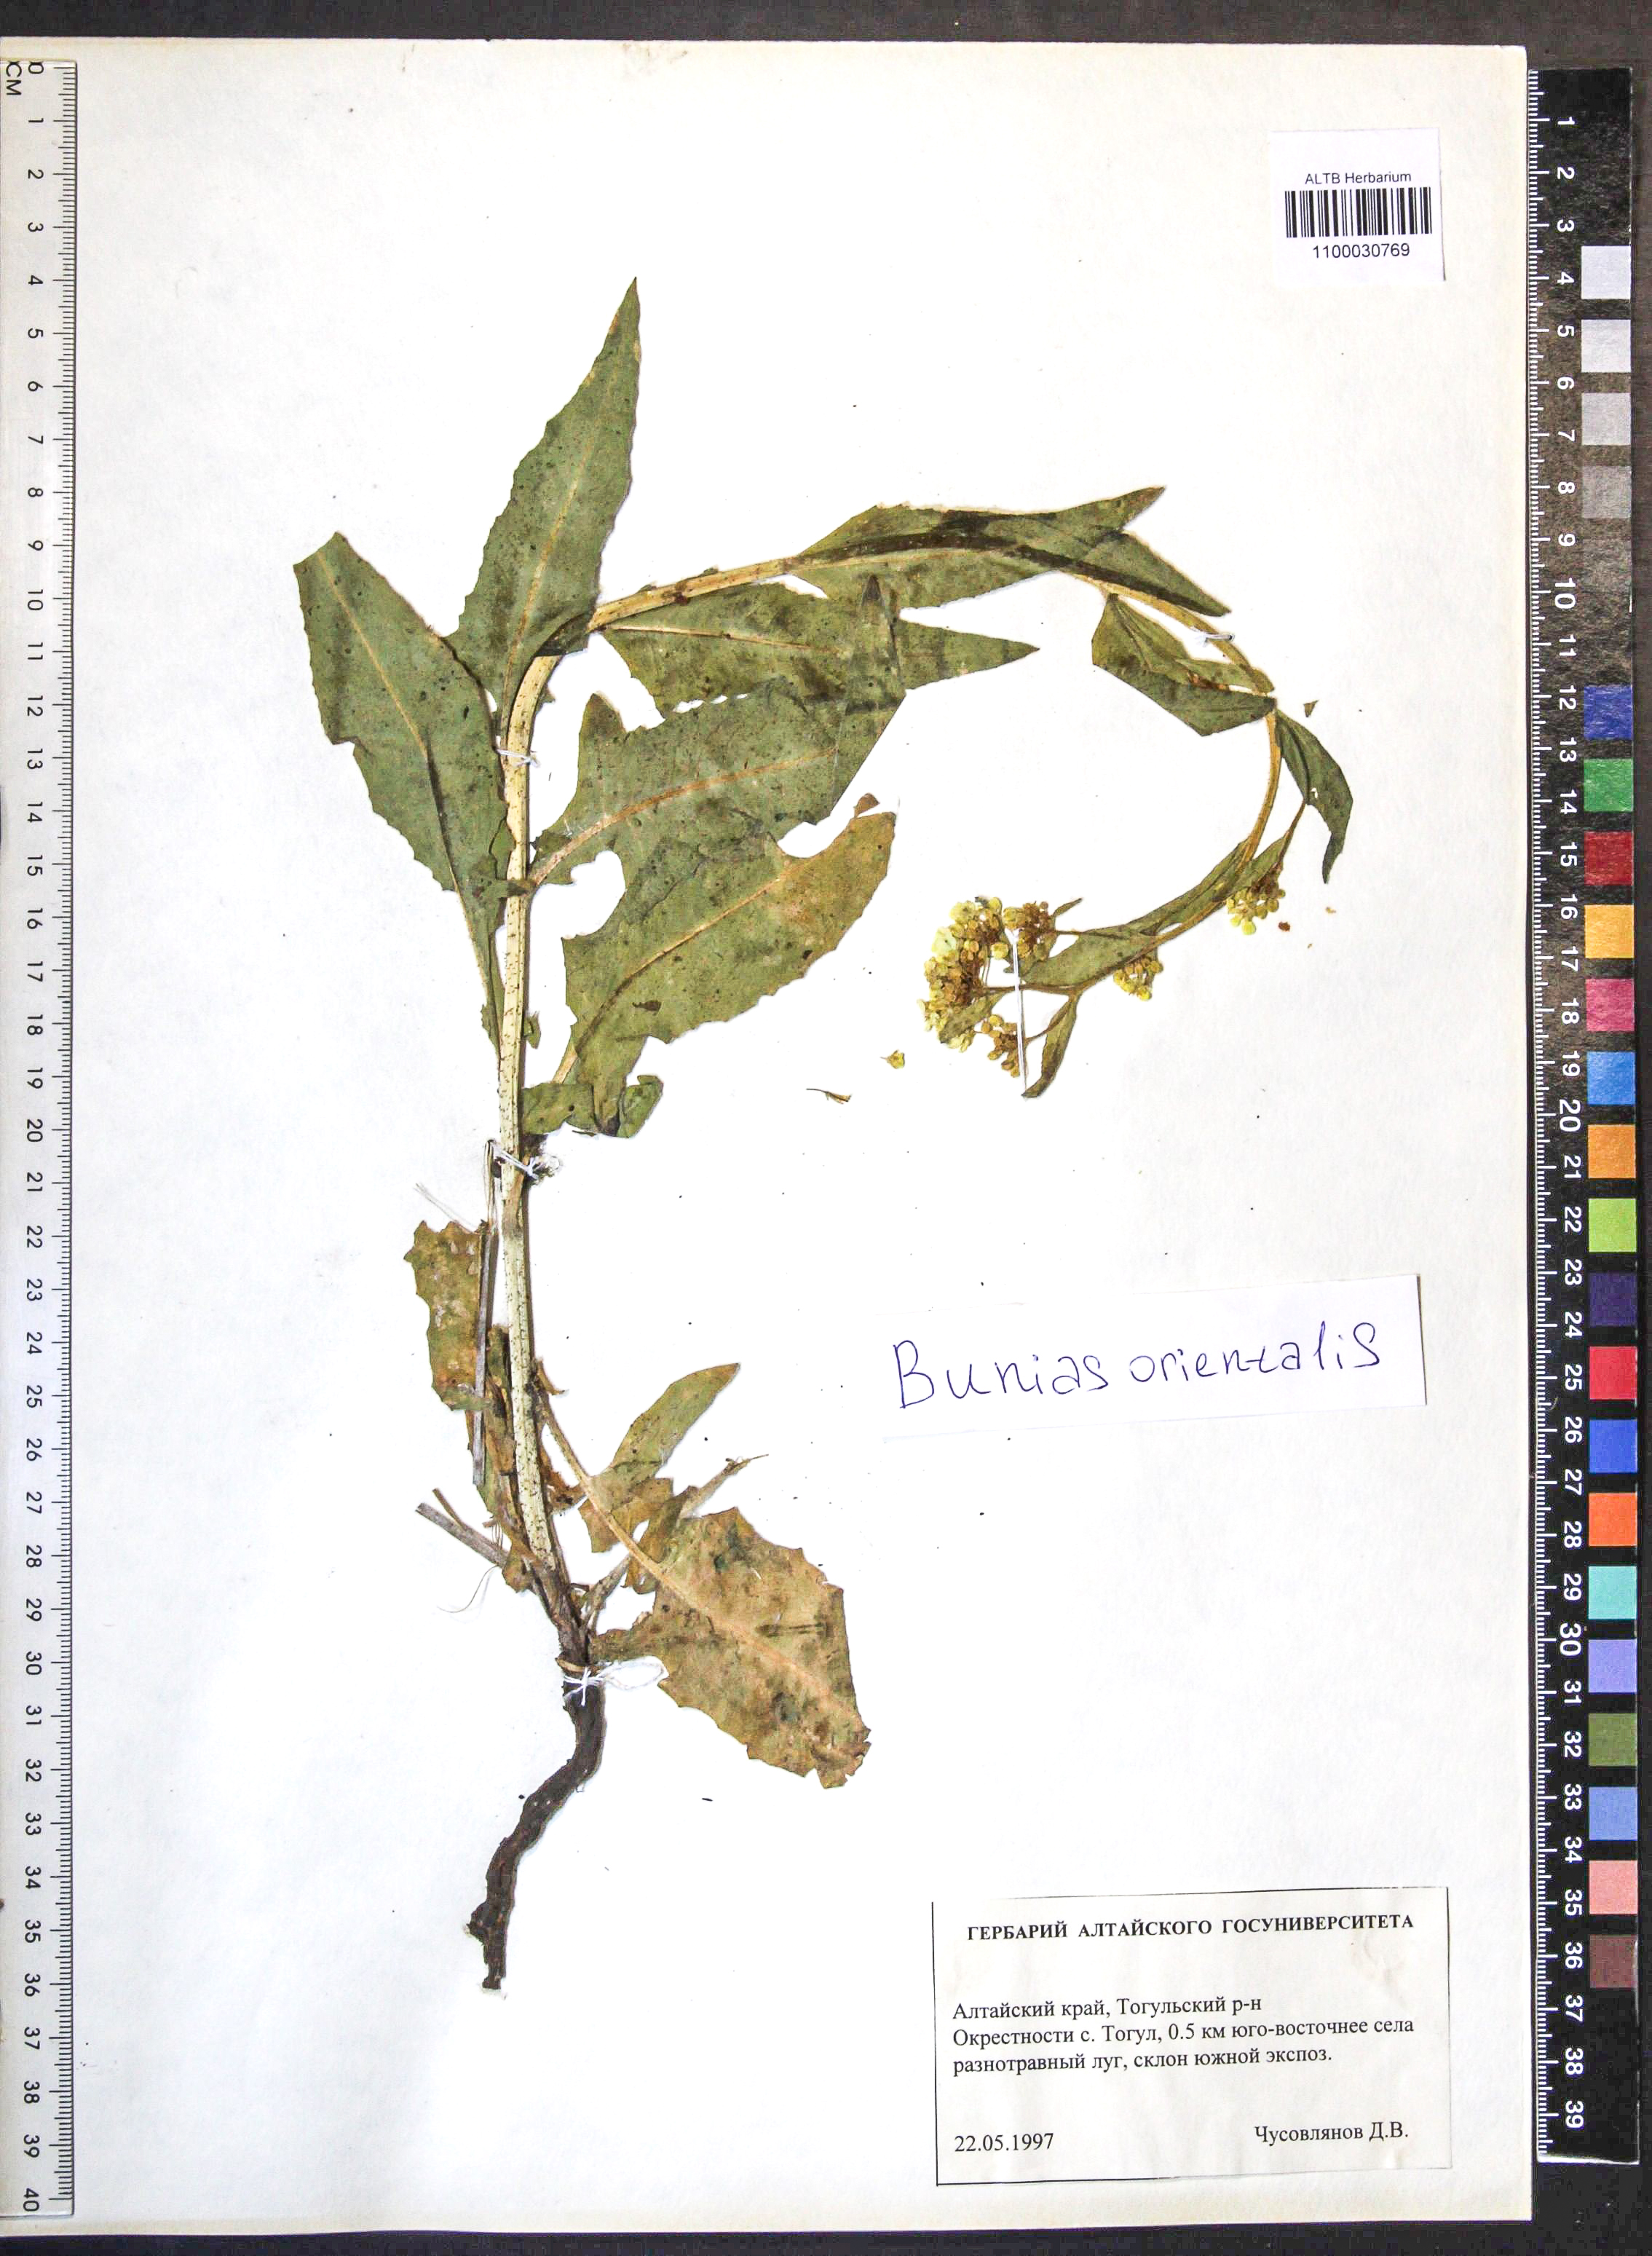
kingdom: Plantae
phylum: Tracheophyta
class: Magnoliopsida
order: Brassicales
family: Brassicaceae
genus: Bunias
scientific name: Bunias orientalis
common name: Warty-cabbage
